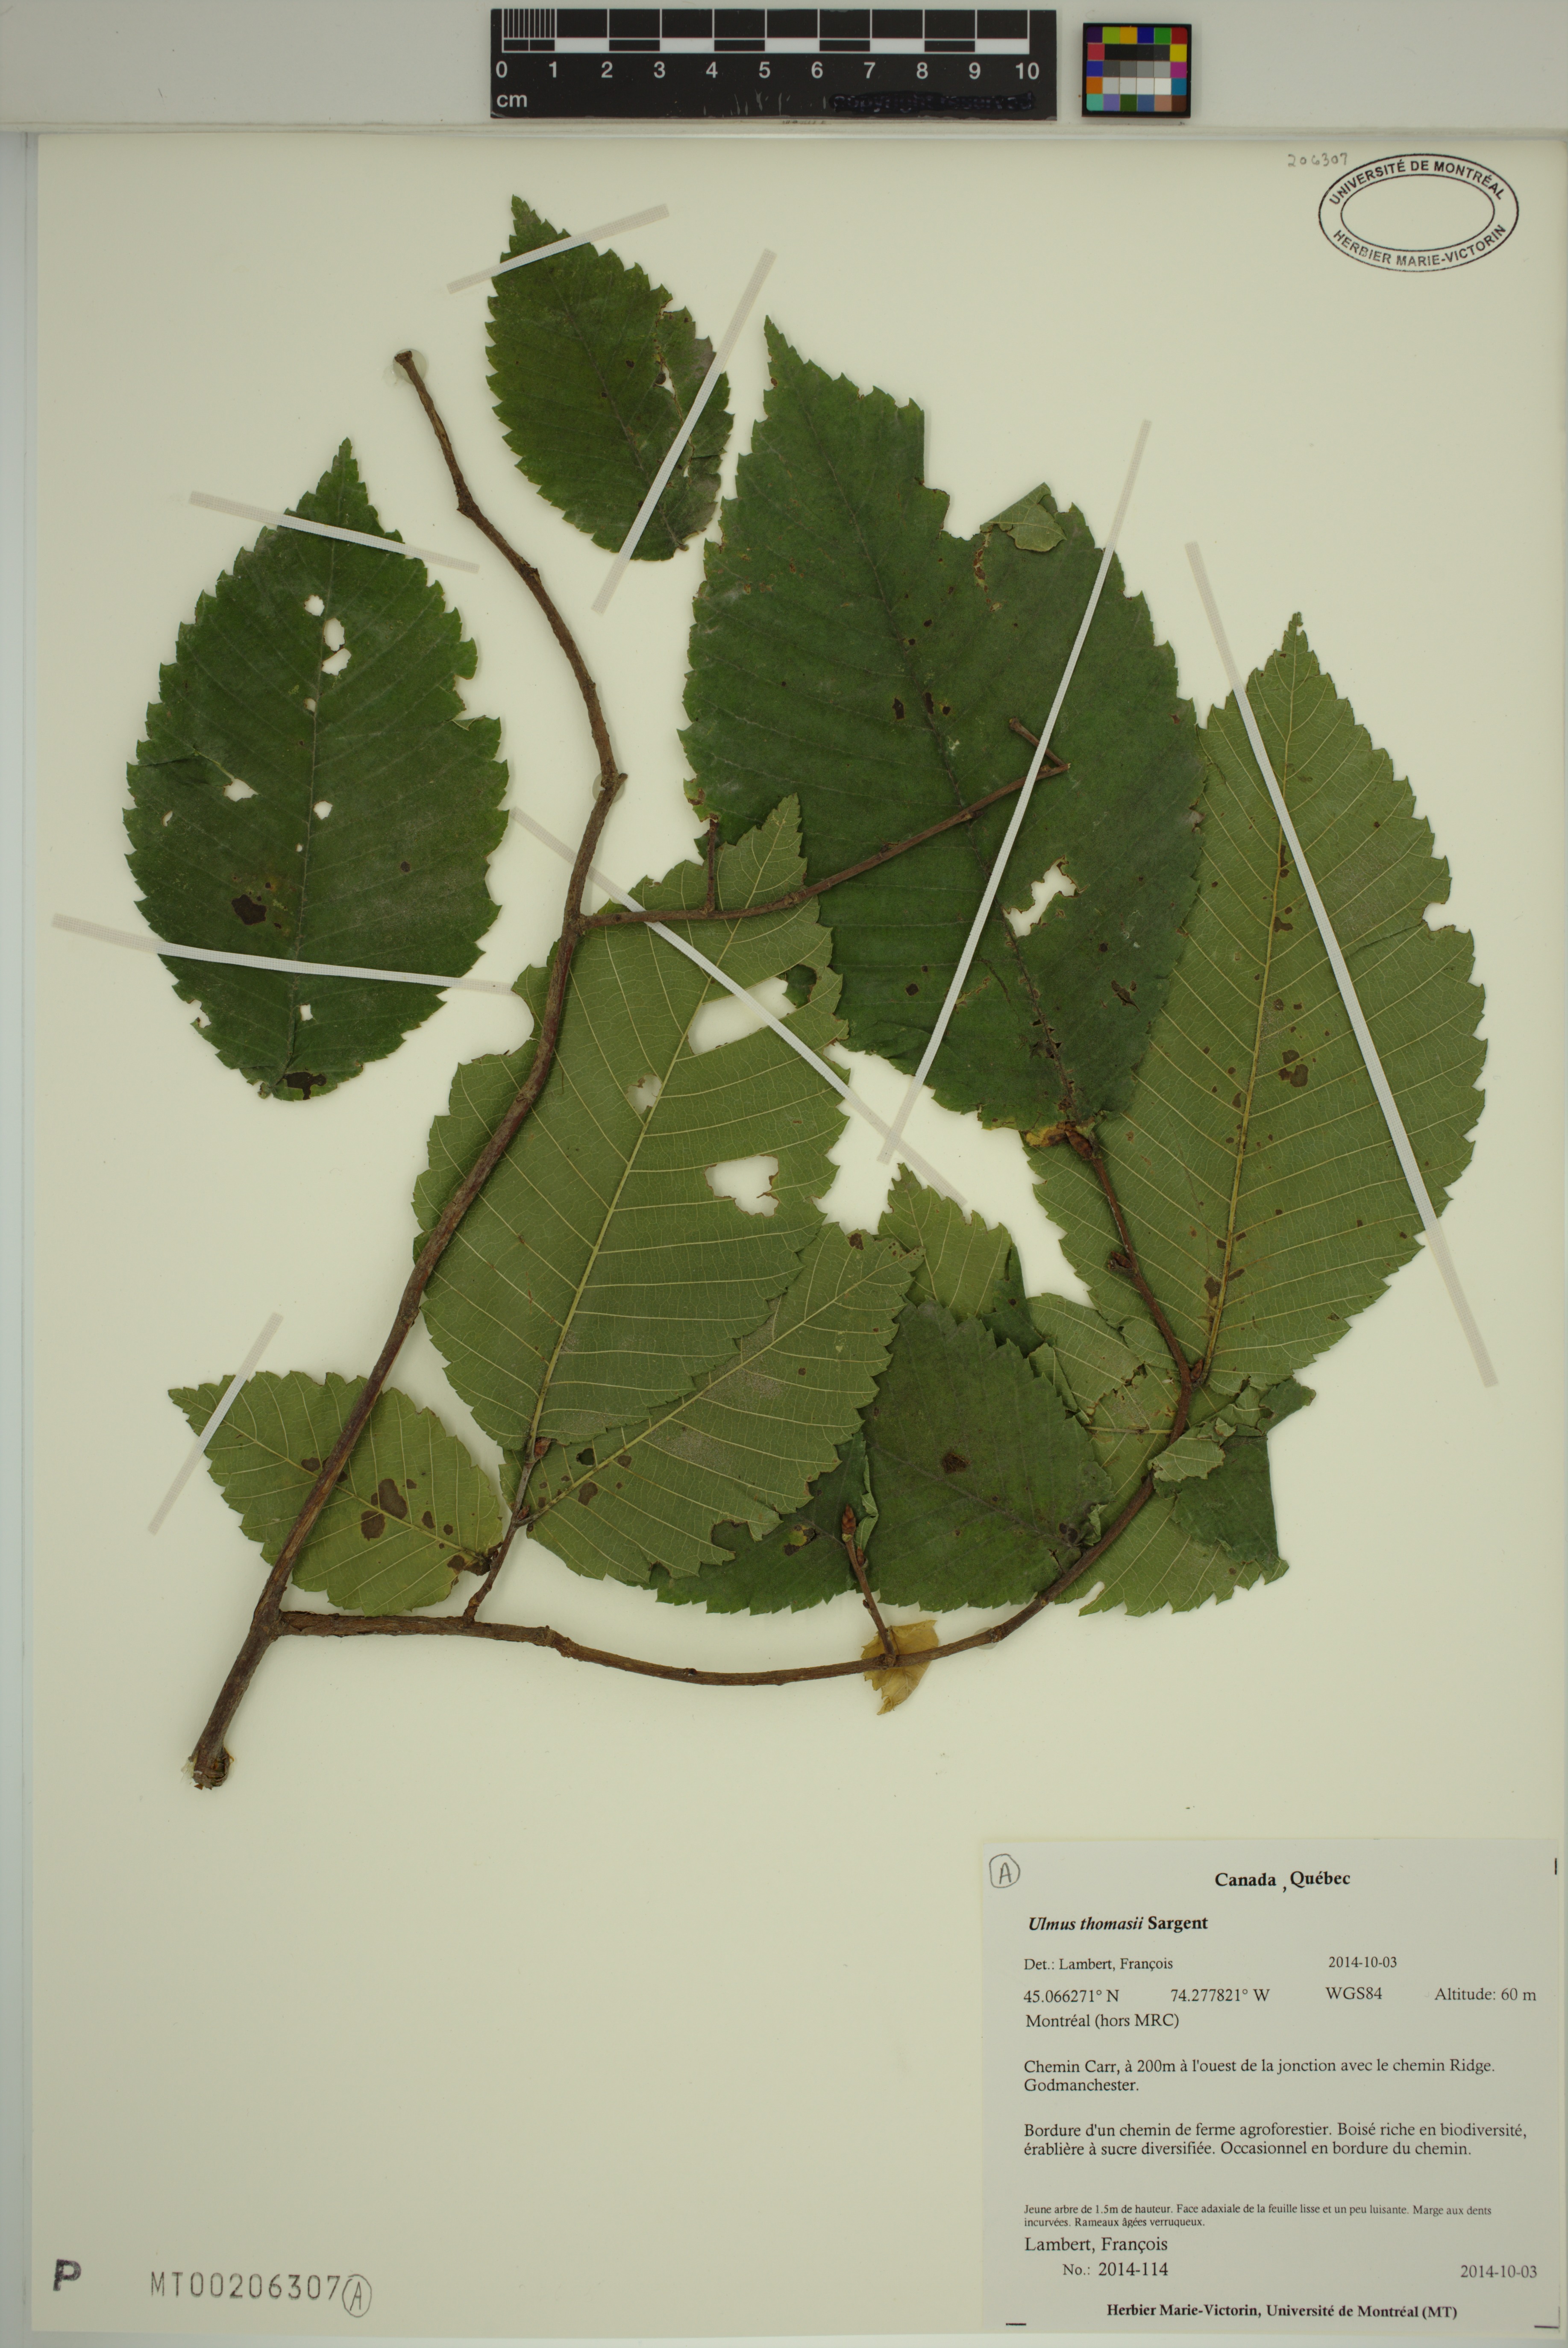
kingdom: Plantae
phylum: Tracheophyta
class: Magnoliopsida
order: Rosales
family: Ulmaceae
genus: Ulmus
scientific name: Ulmus thomasii
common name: Rock elm
